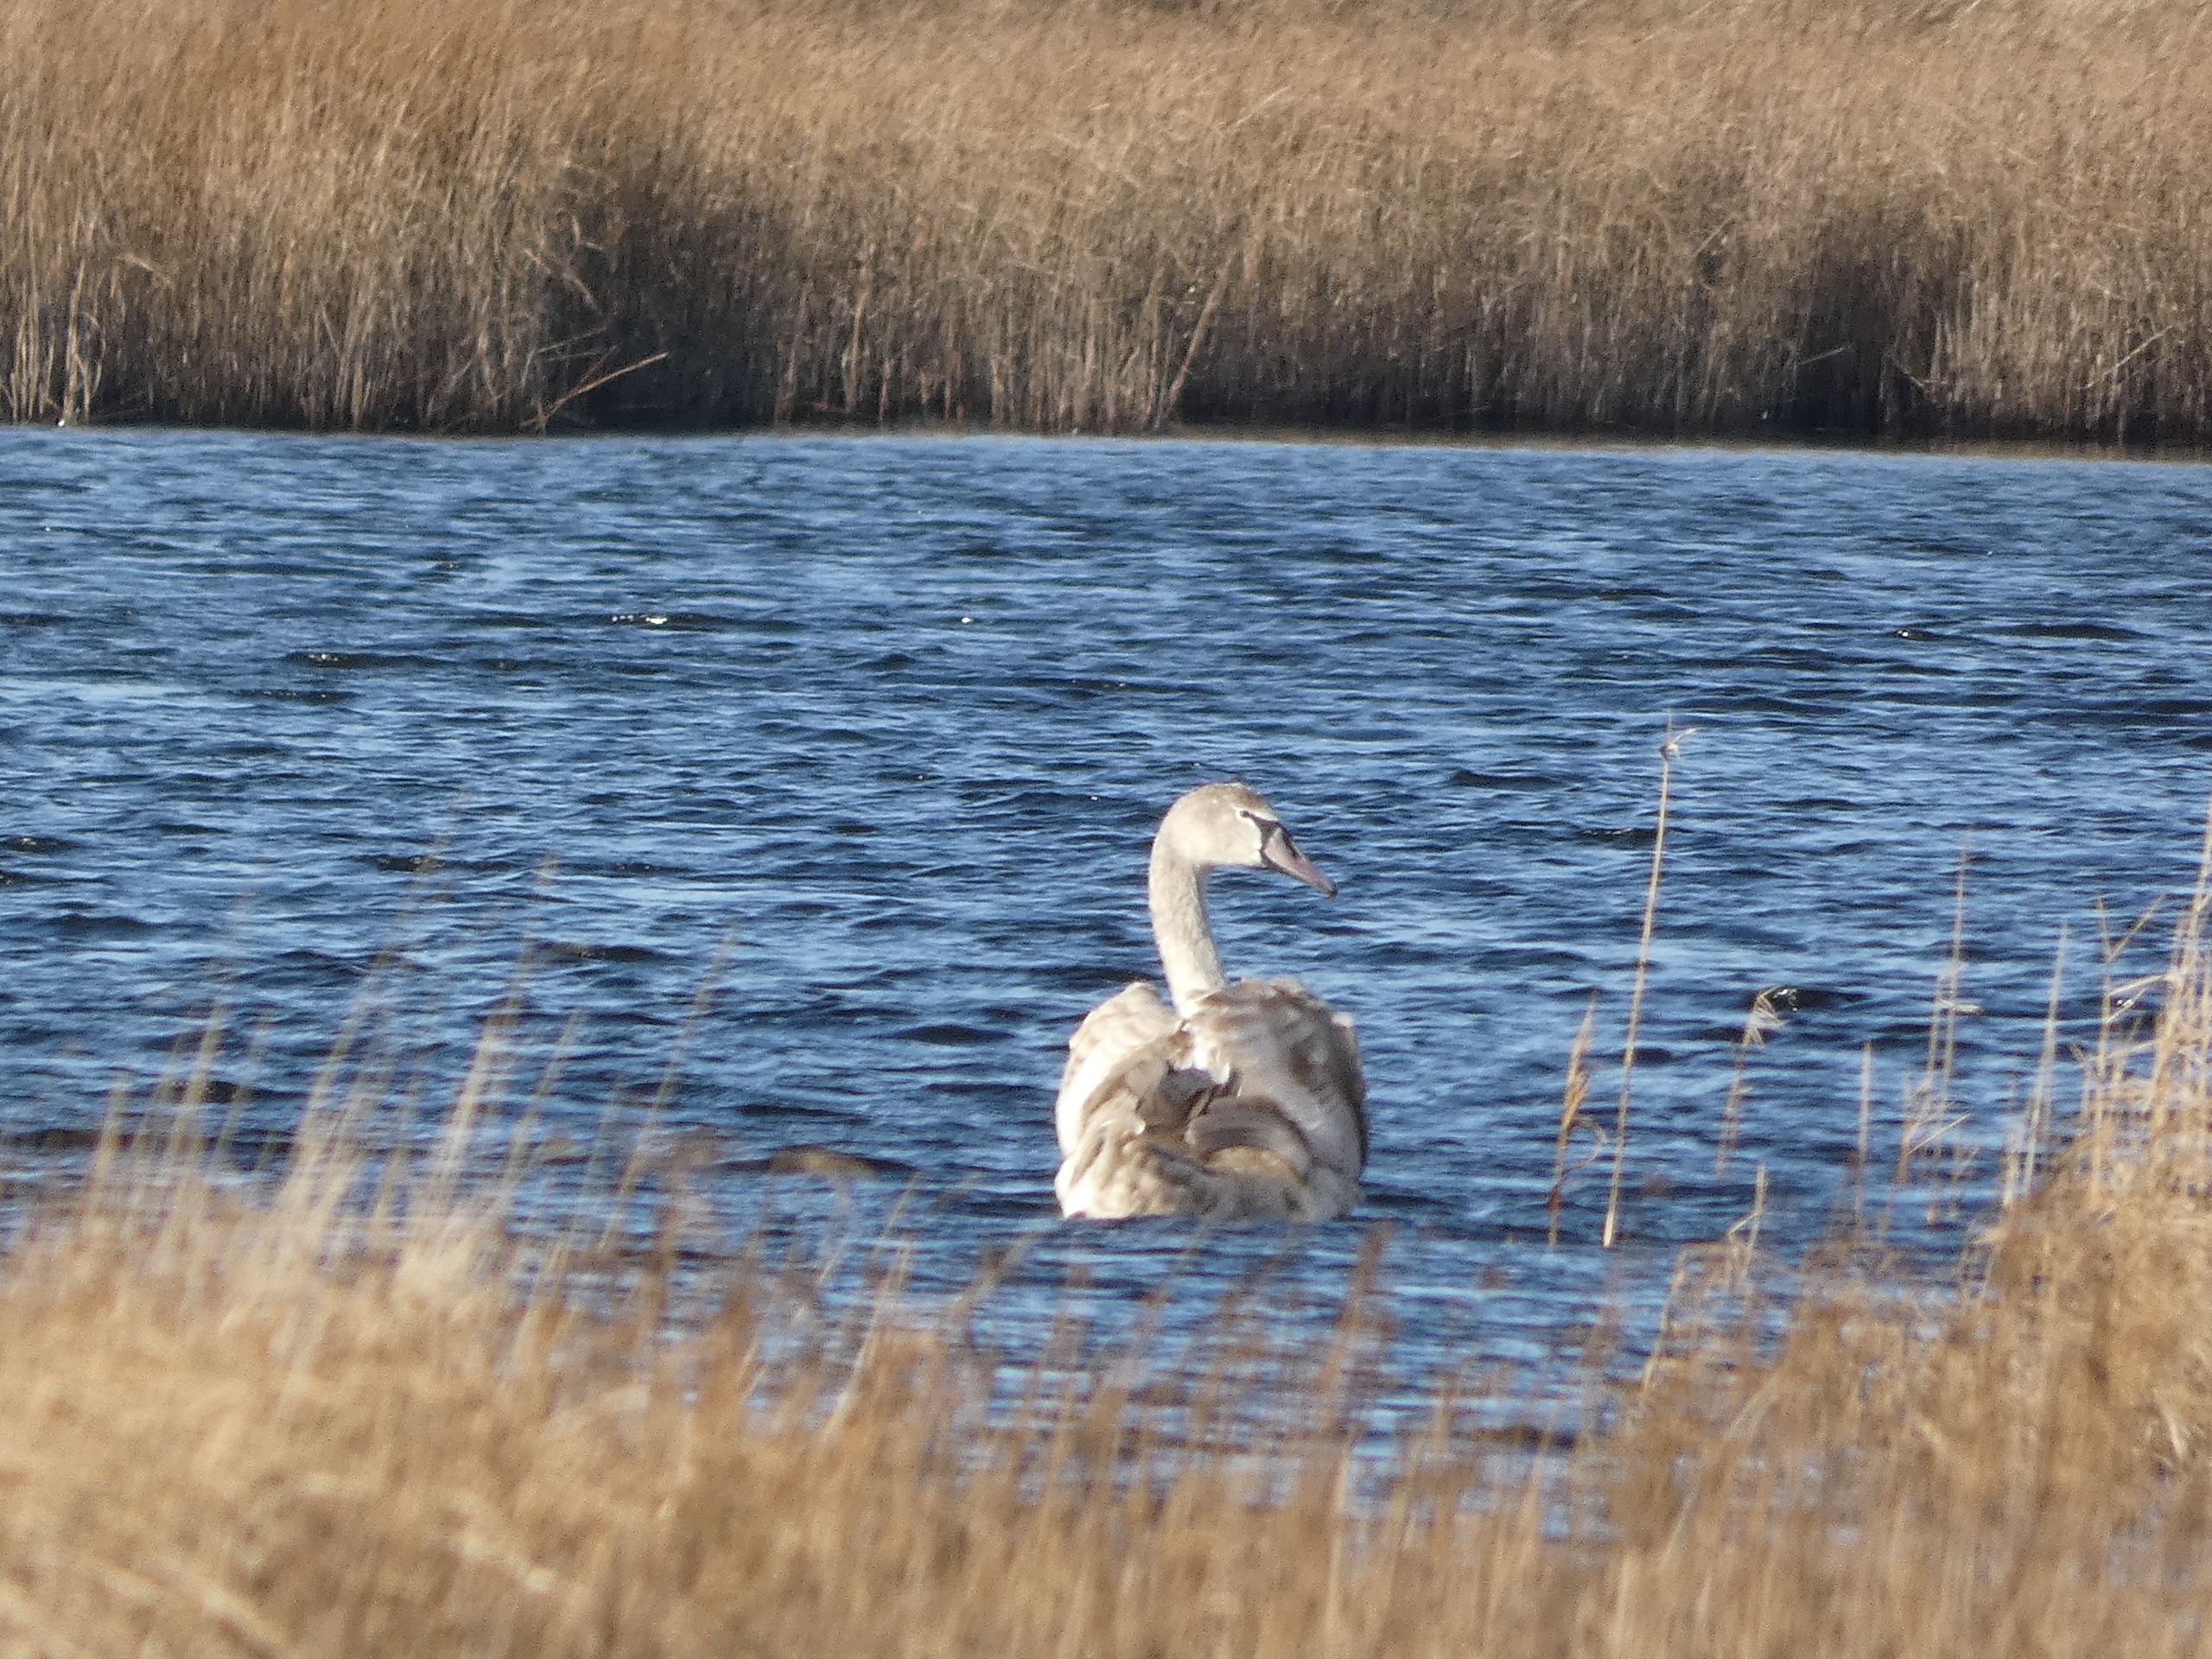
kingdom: Animalia
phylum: Chordata
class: Aves
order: Anseriformes
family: Anatidae
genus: Cygnus
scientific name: Cygnus olor
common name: Knopsvane
